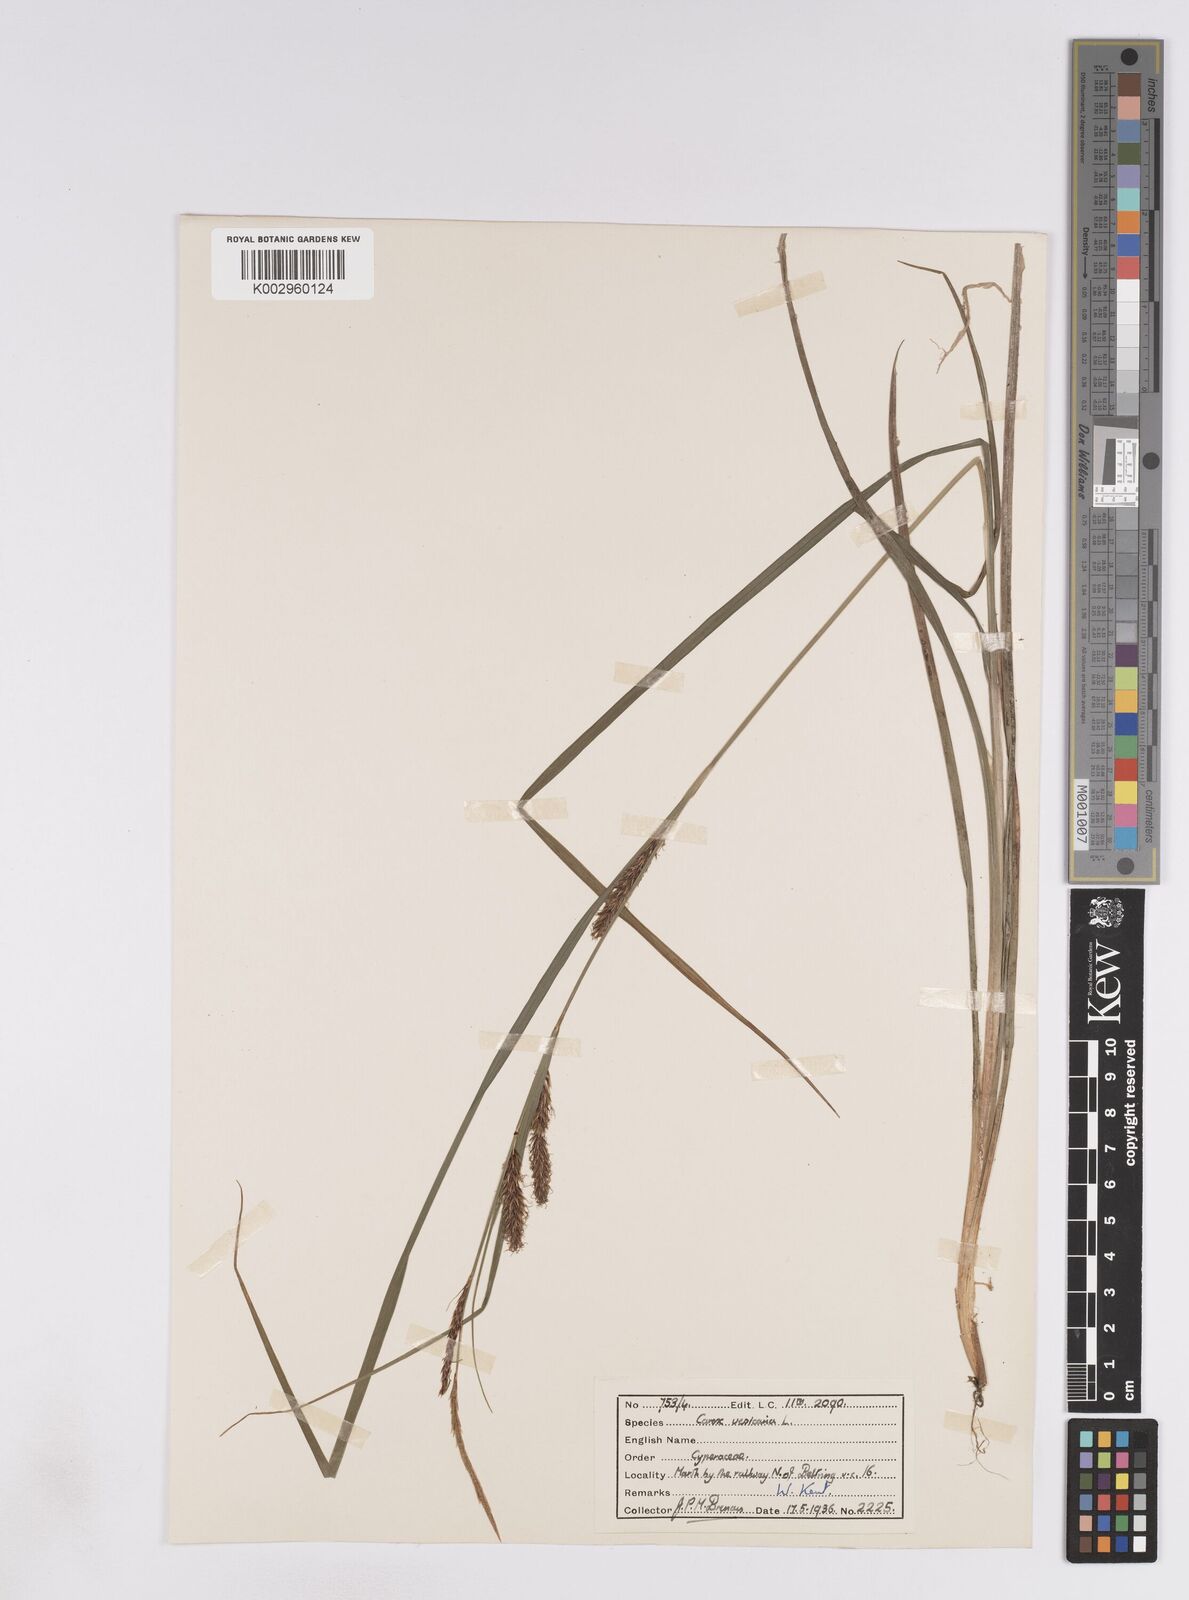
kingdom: Plantae
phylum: Tracheophyta
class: Liliopsida
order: Poales
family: Cyperaceae
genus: Carex
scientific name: Carex vesicaria
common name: Bladder-sedge
